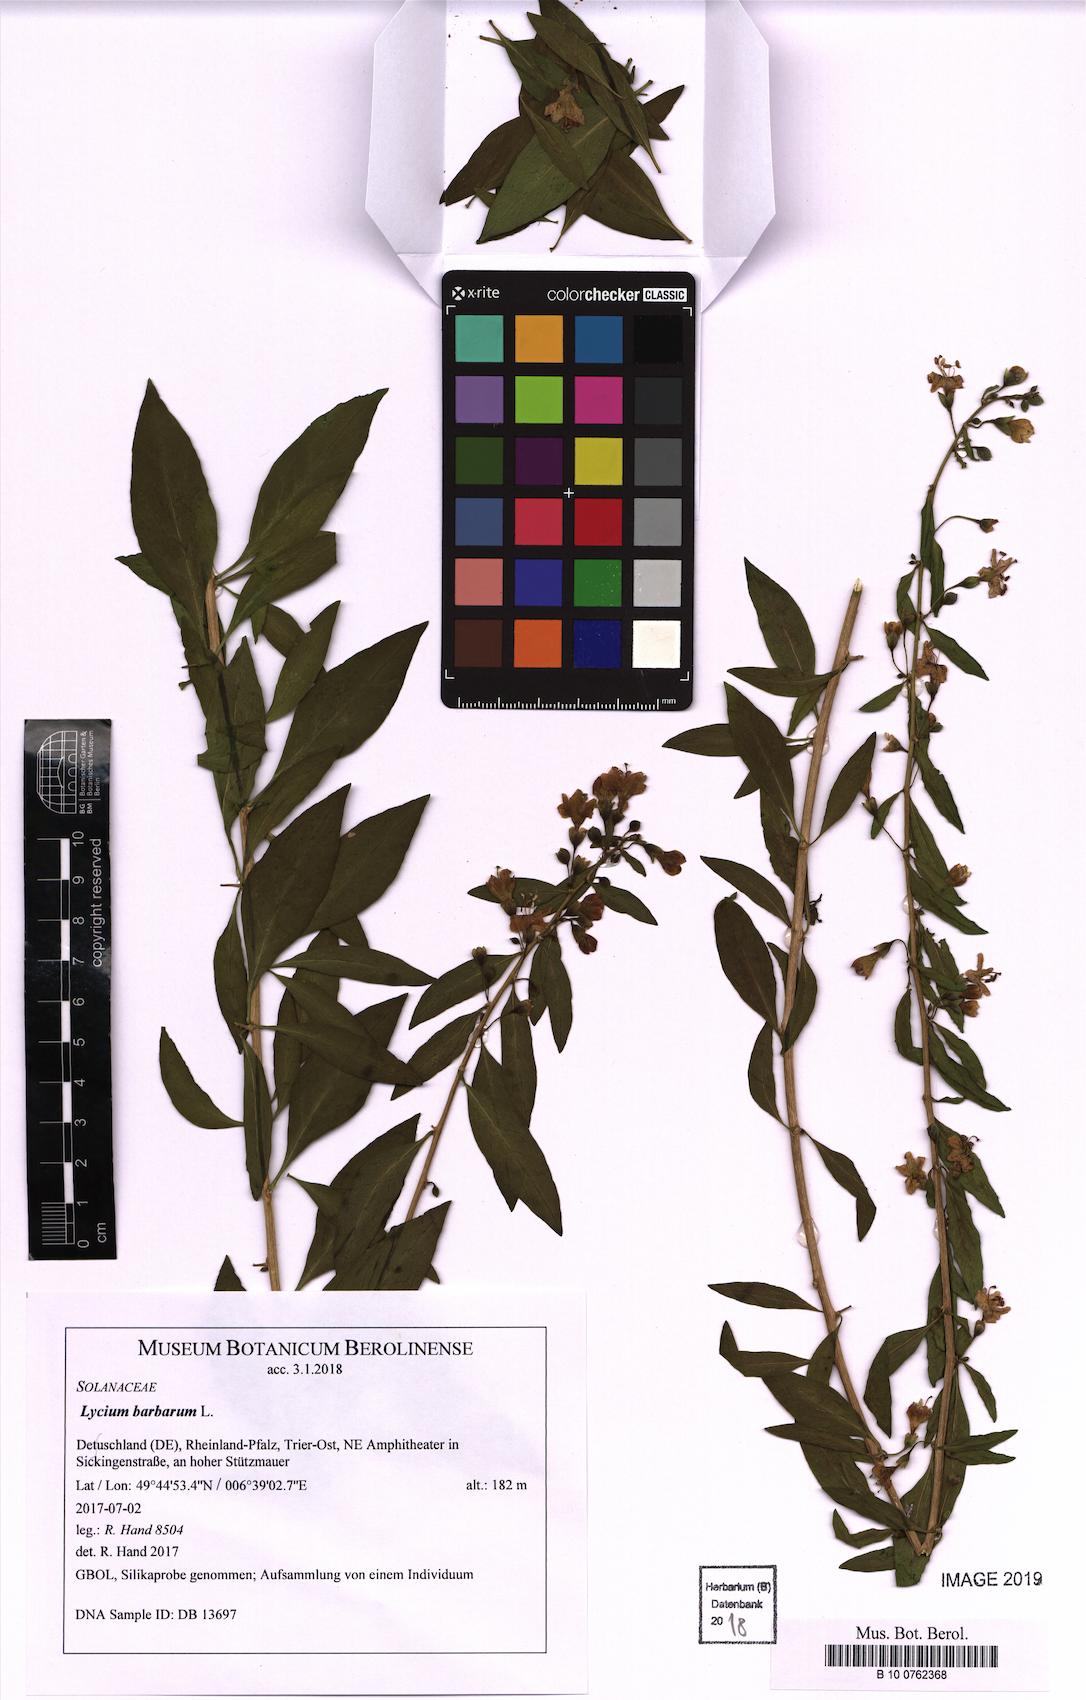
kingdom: Plantae
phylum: Tracheophyta
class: Magnoliopsida
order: Solanales
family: Solanaceae
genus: Lycium
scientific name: Lycium barbarum
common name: Duke of argyll's teaplant
